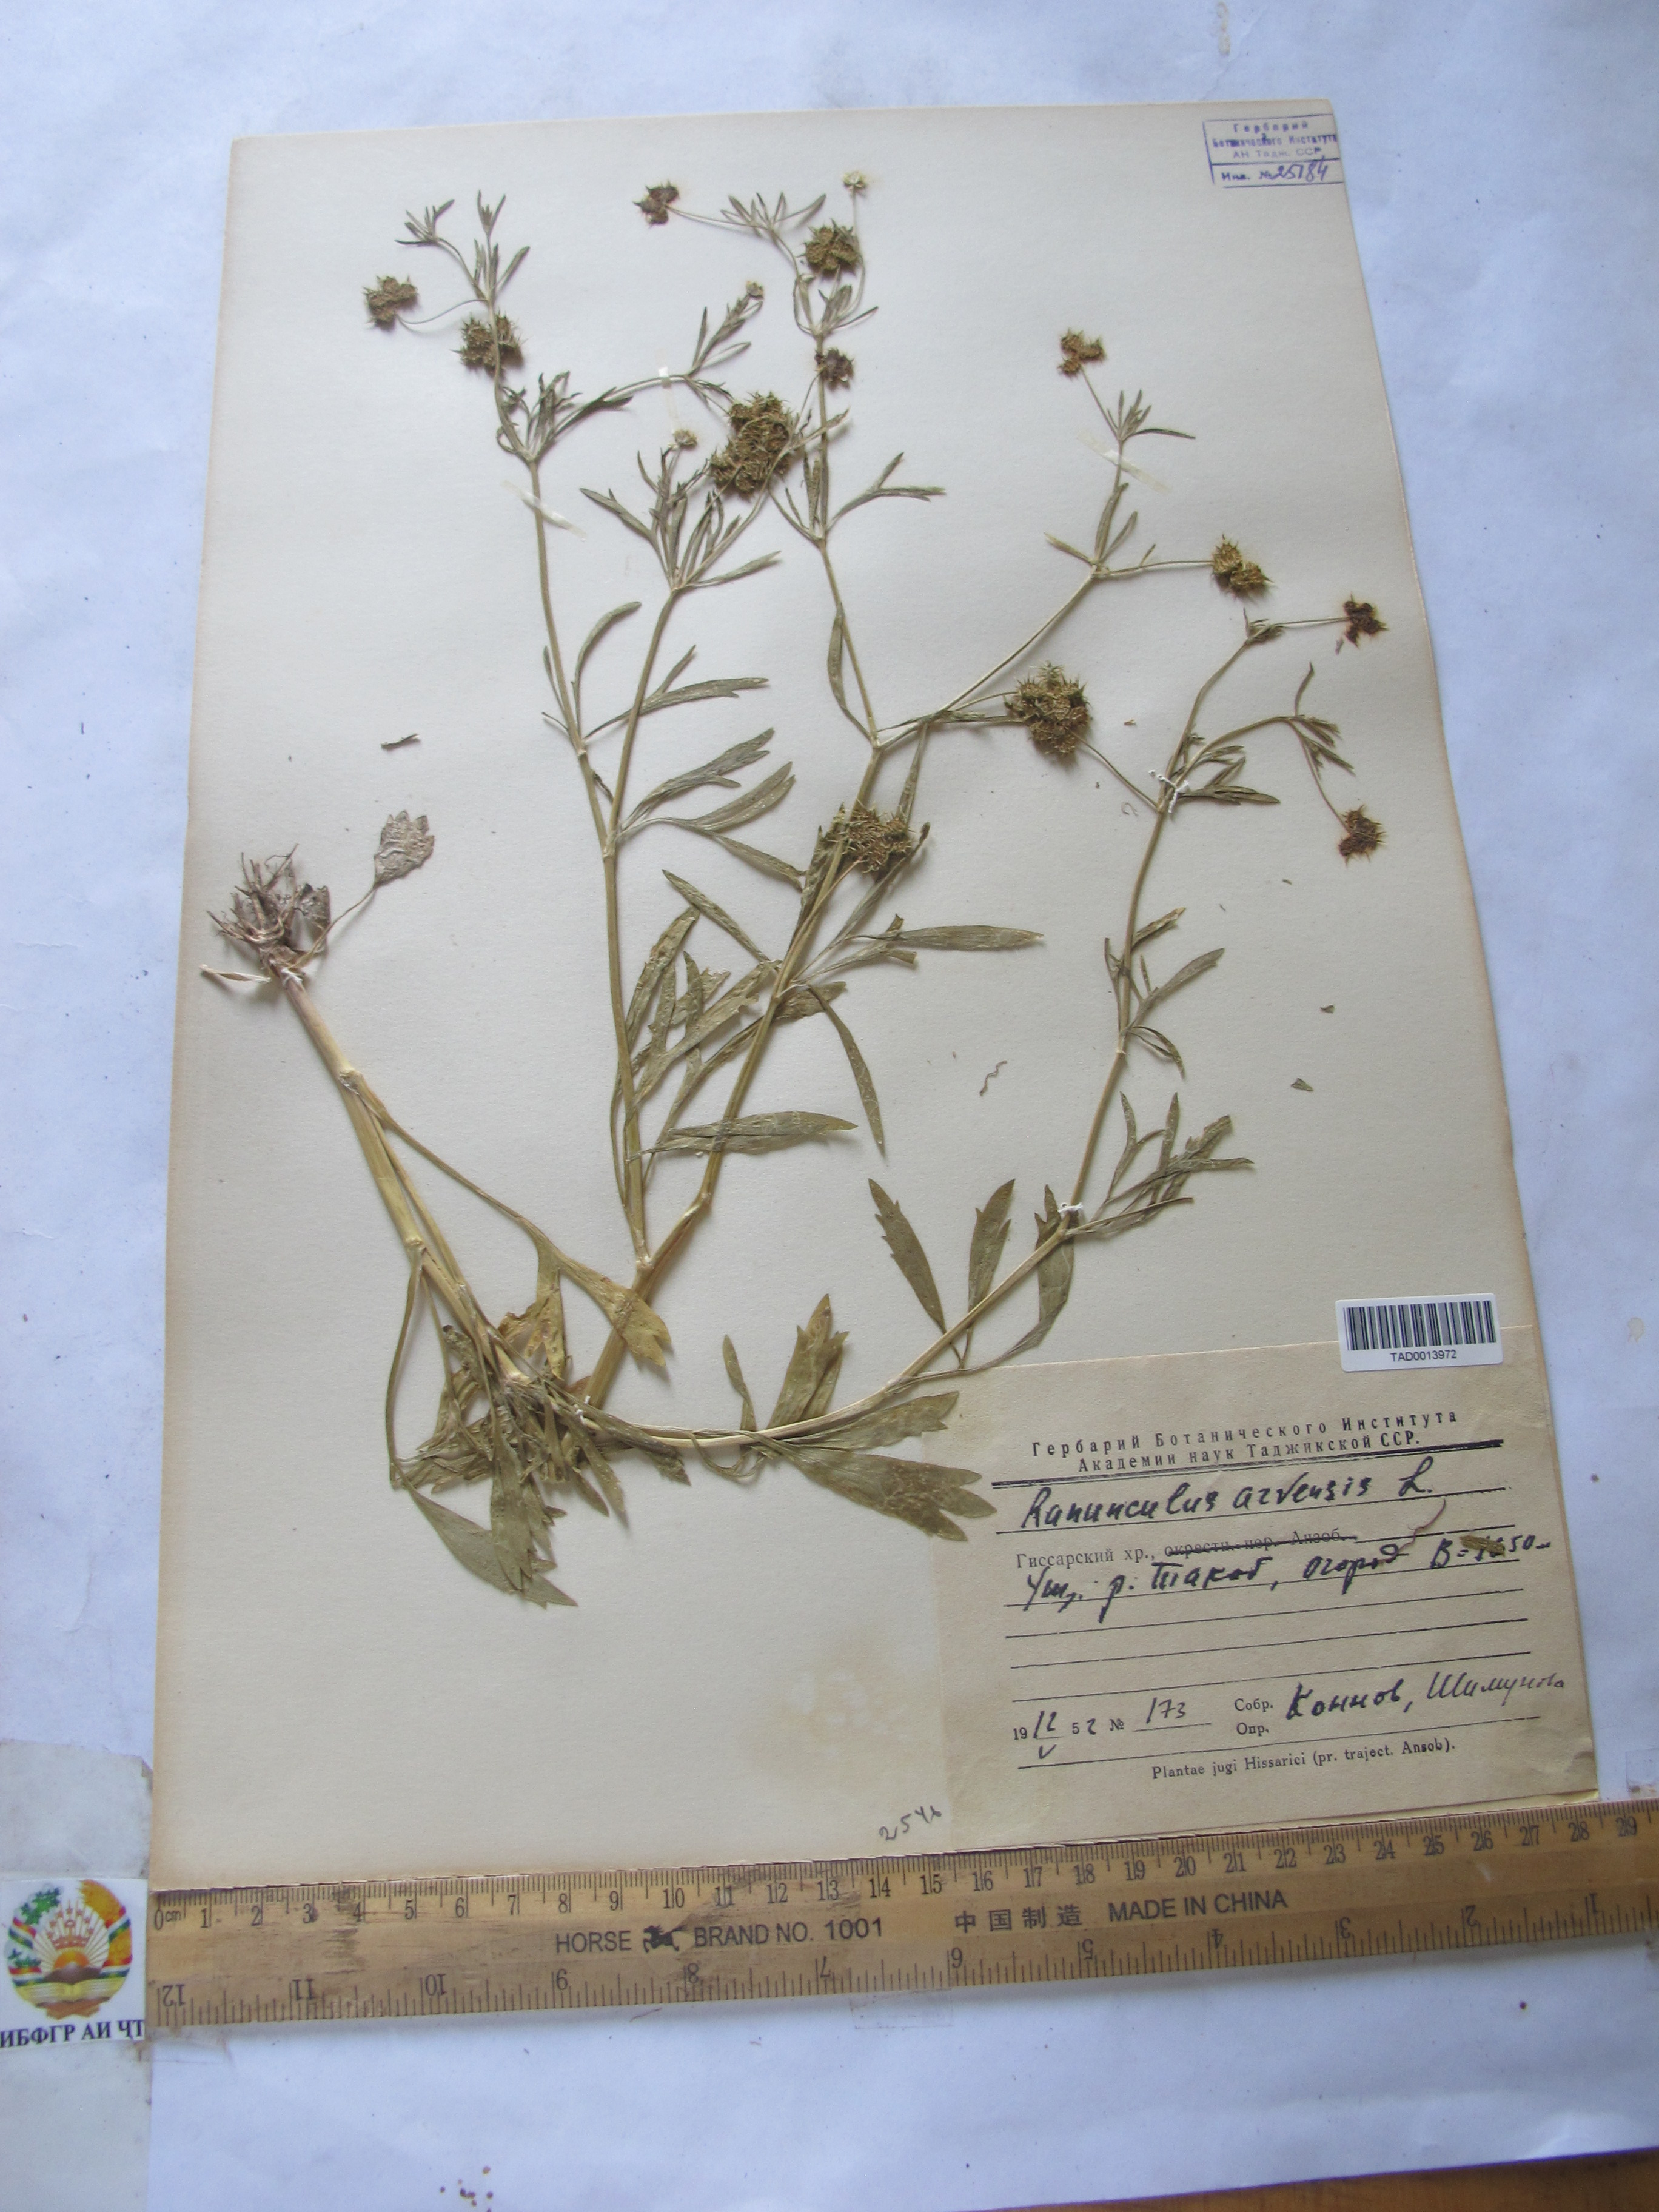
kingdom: Plantae
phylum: Tracheophyta
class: Magnoliopsida
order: Ranunculales
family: Ranunculaceae
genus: Ranunculus
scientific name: Ranunculus arvensis
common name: Corn buttercup
